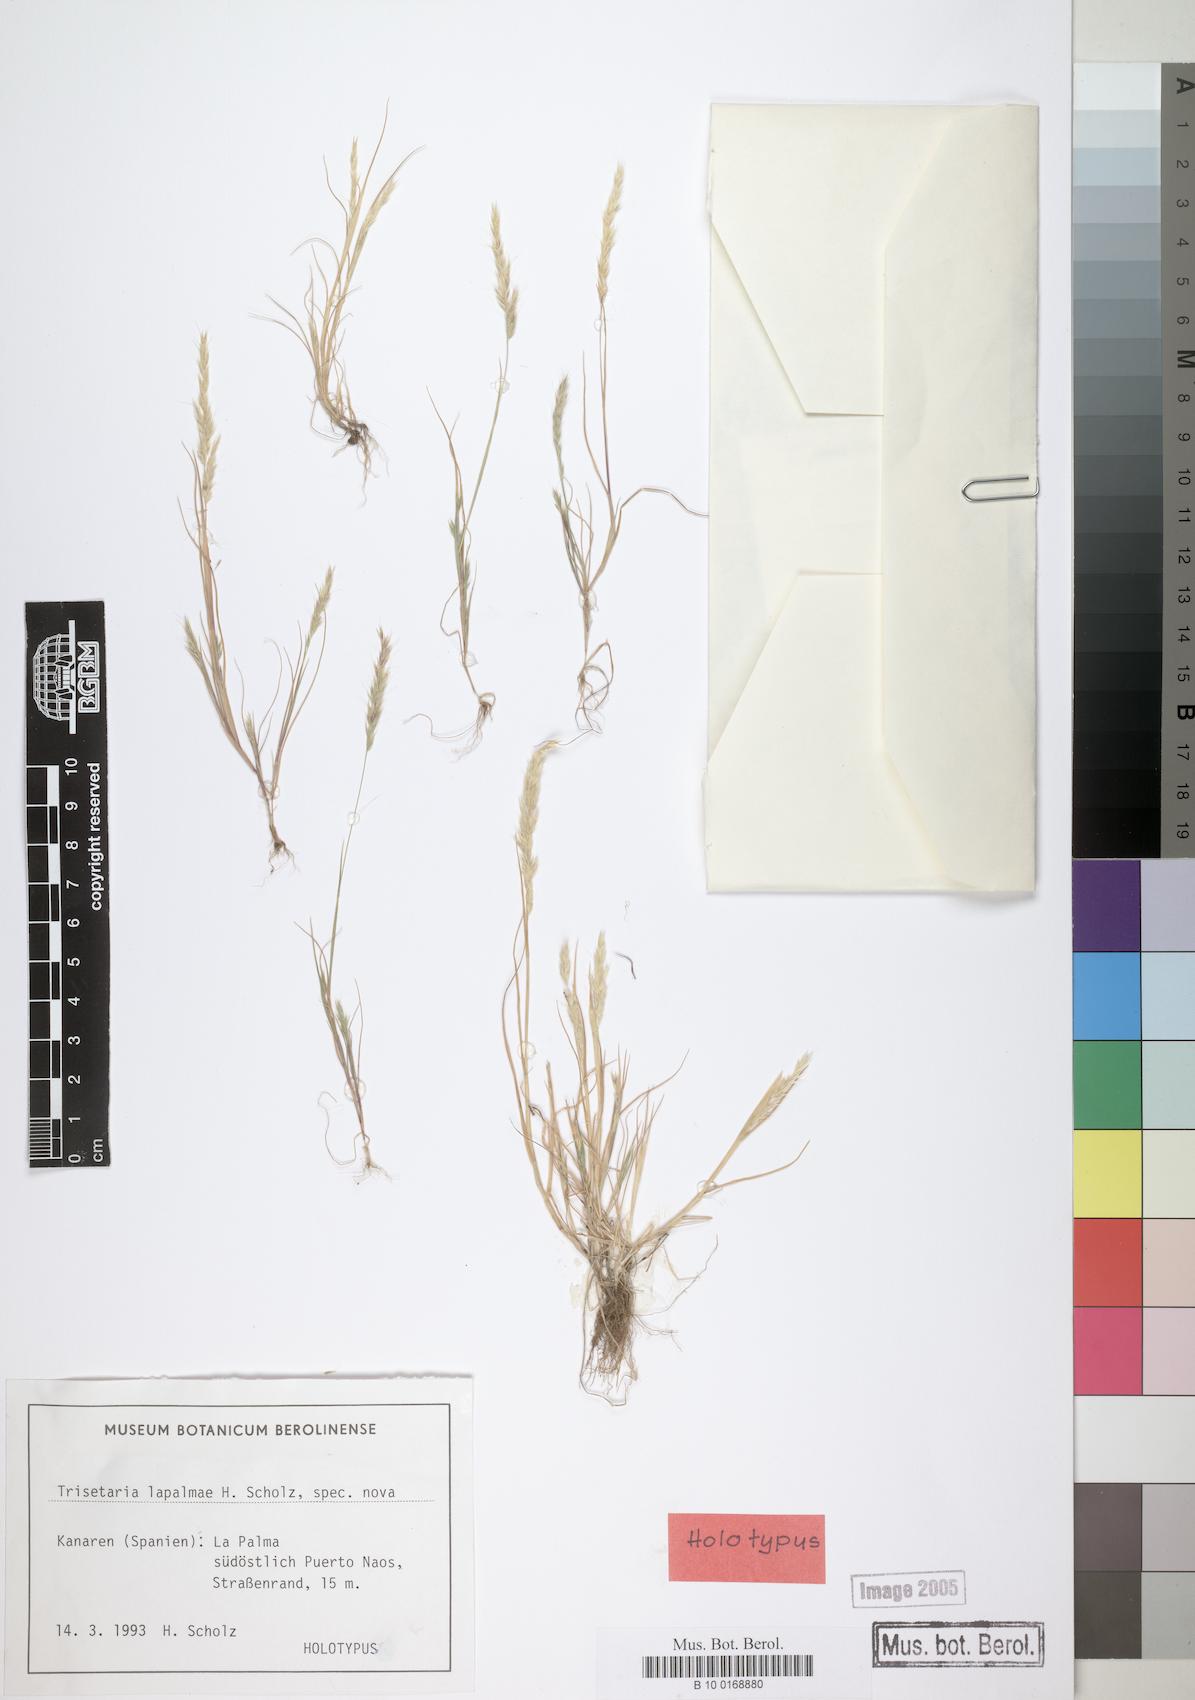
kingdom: Plantae
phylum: Tracheophyta
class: Liliopsida
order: Poales
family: Poaceae
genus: Trisetaria
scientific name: Trisetaria loeflingiana
